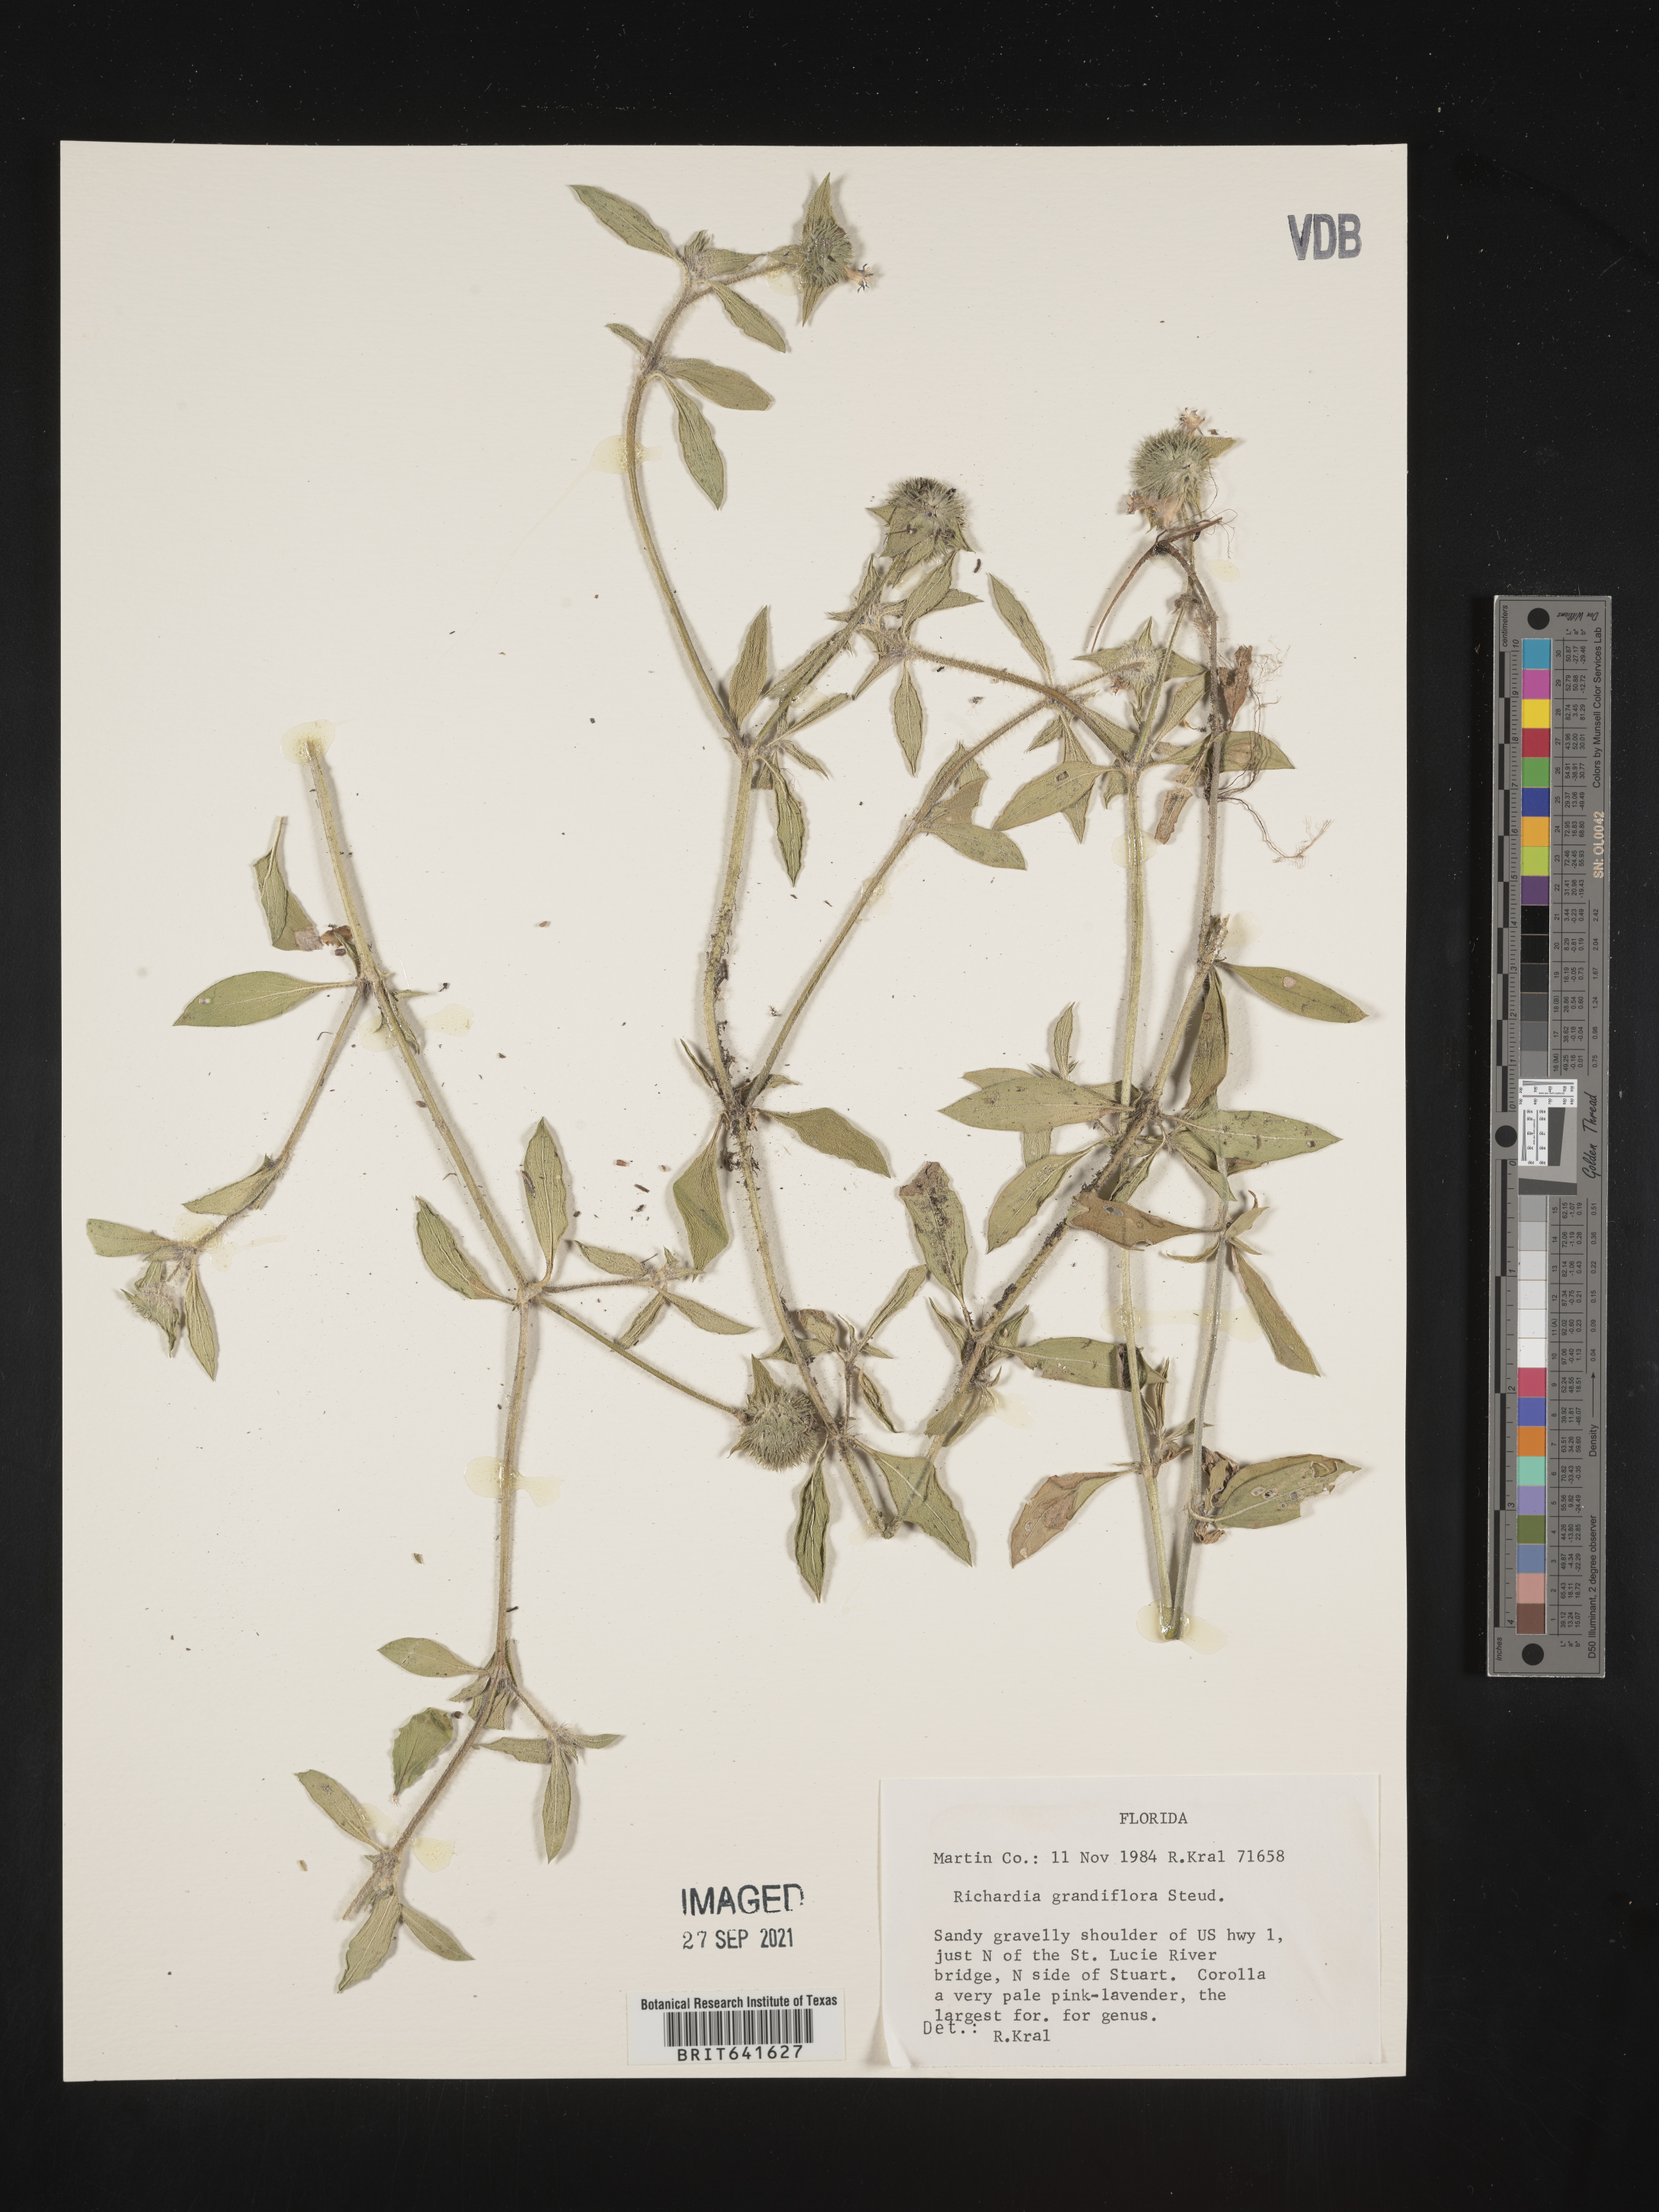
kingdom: Plantae
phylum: Tracheophyta
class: Magnoliopsida
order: Gentianales
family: Rubiaceae
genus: Richardia
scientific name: Richardia grandiflora
